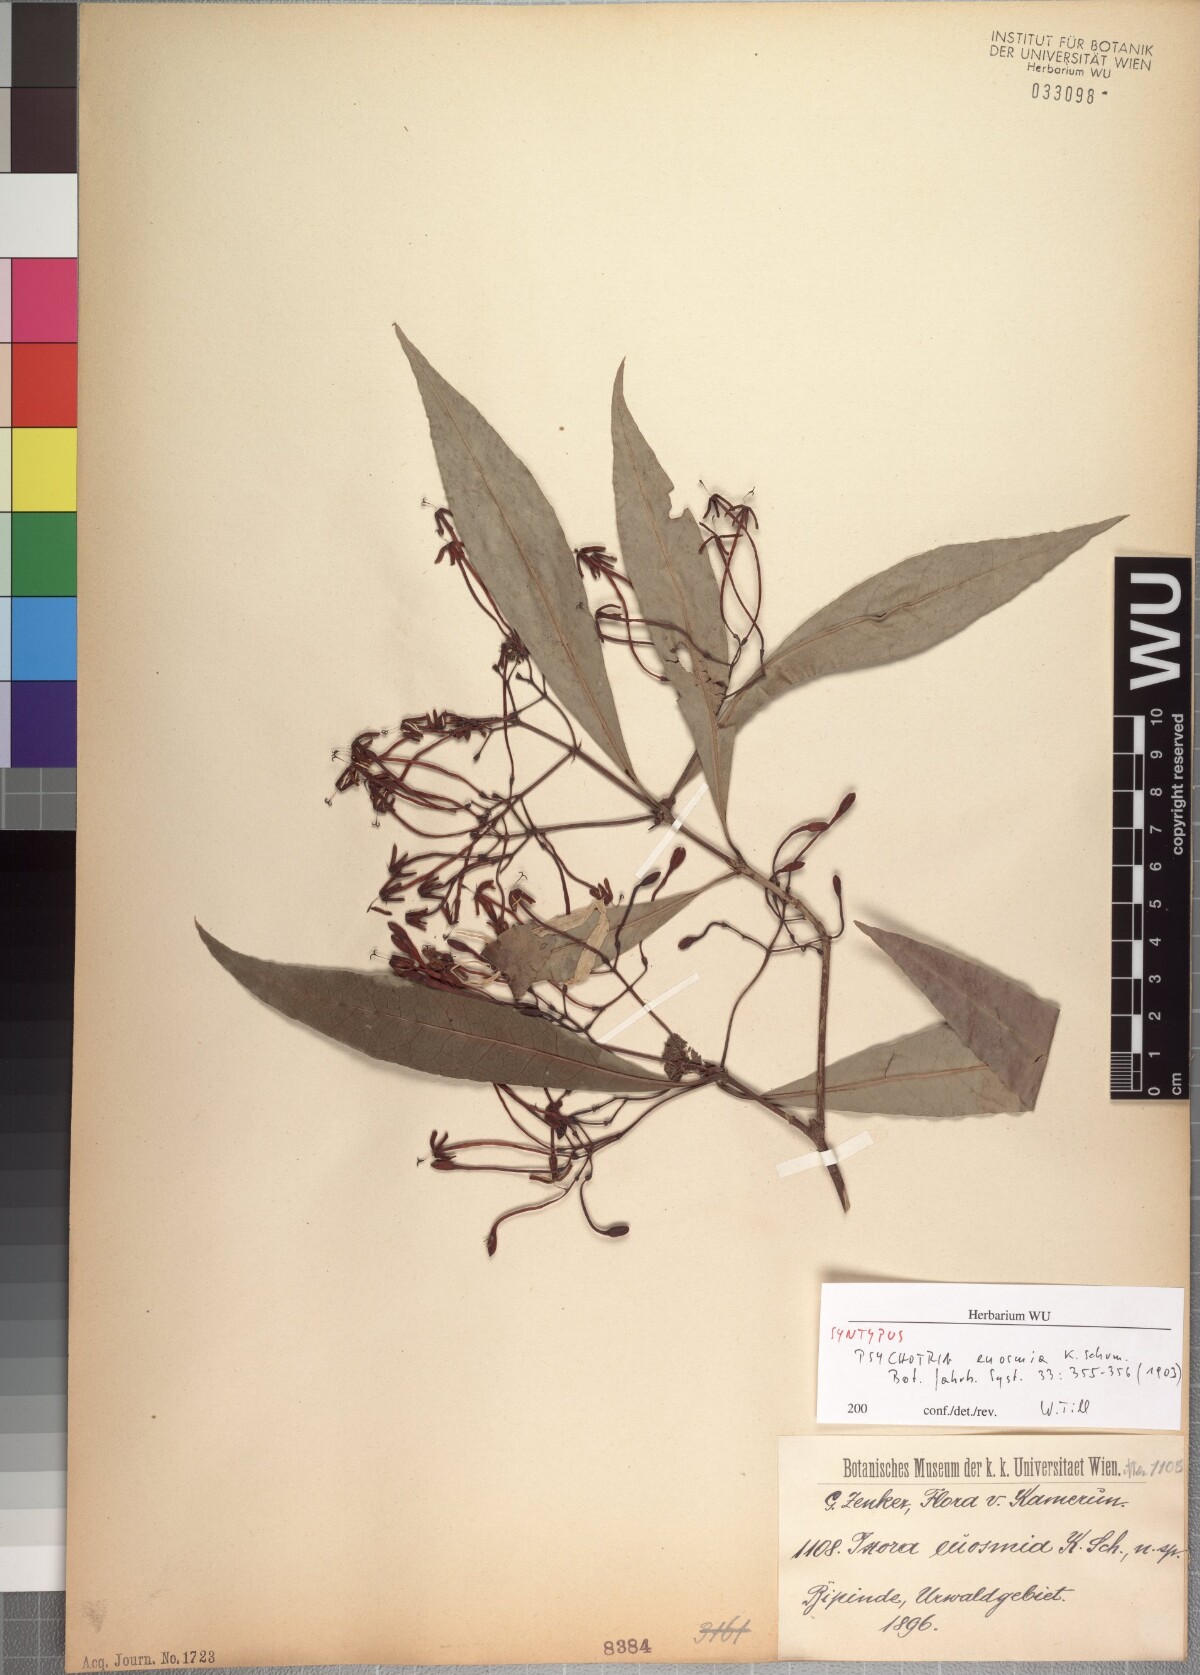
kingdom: Plantae
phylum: Tracheophyta
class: Magnoliopsida
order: Gentianales
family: Rubiaceae
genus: Ixora
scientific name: Ixora euosmia
